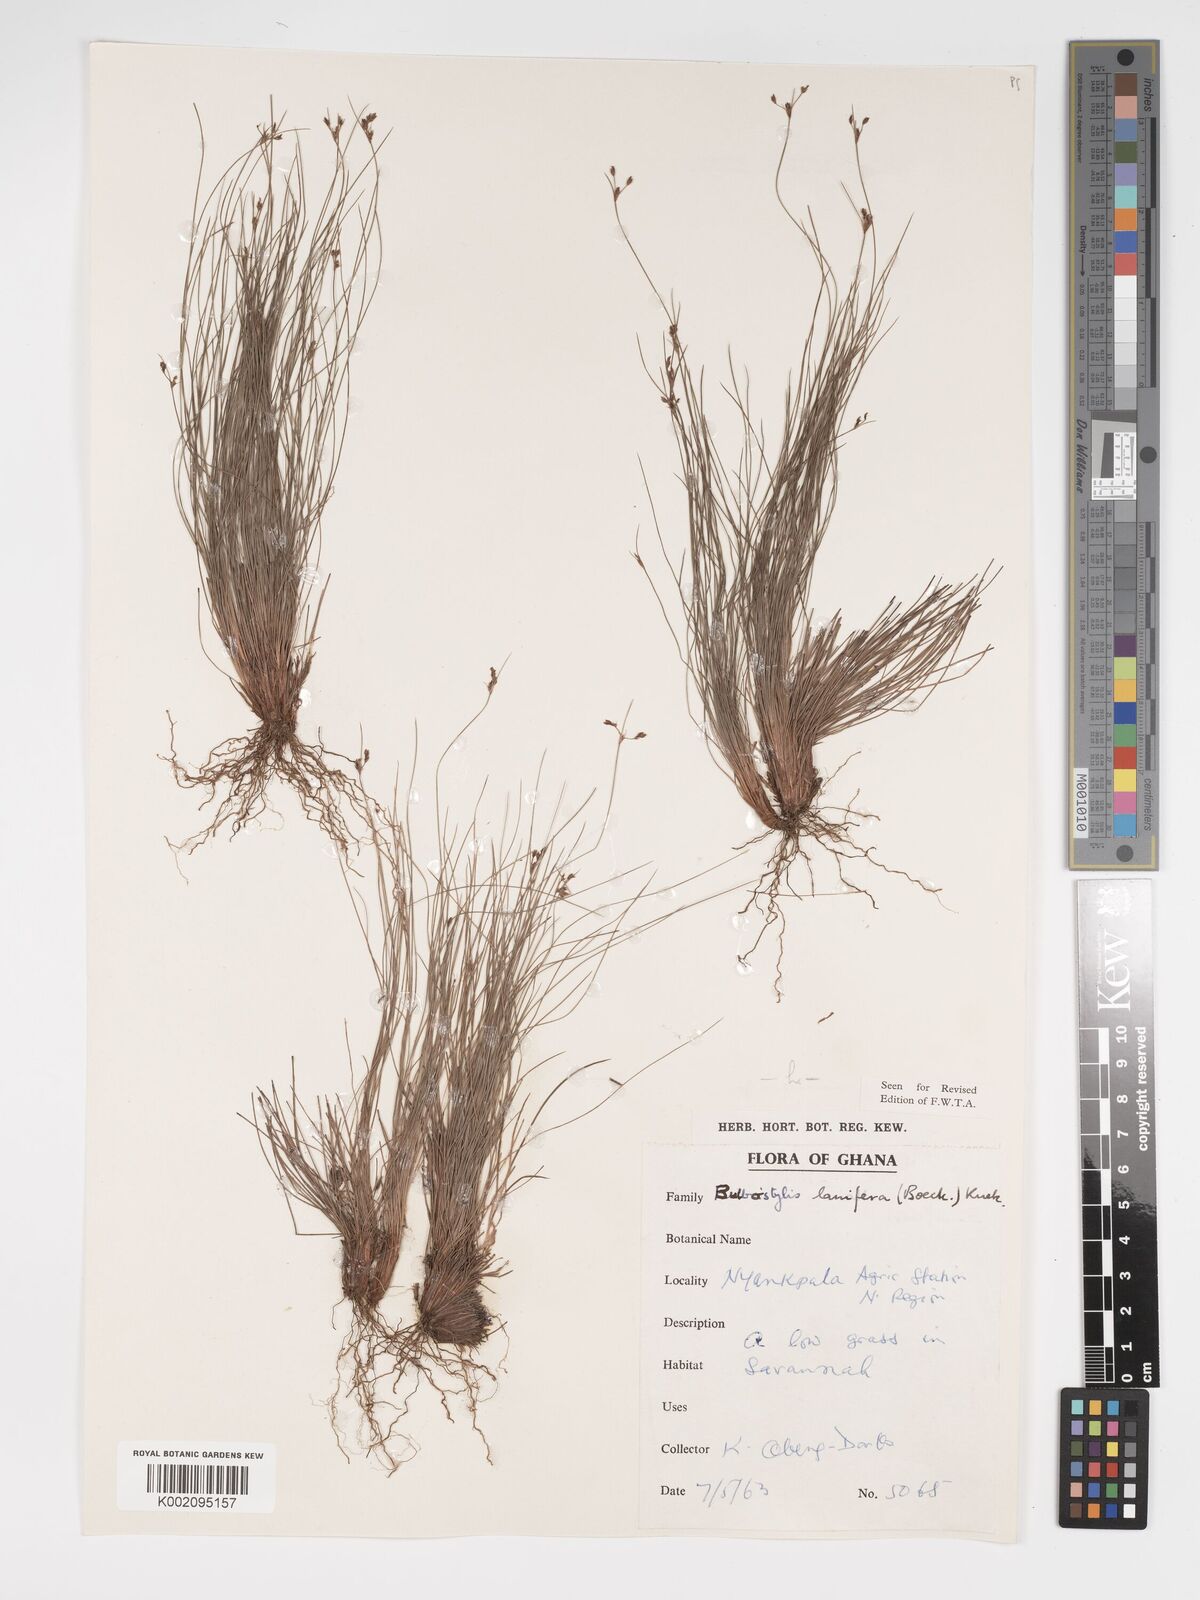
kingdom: Plantae
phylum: Tracheophyta
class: Liliopsida
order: Poales
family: Cyperaceae
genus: Bulbostylis
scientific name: Bulbostylis lanifera
